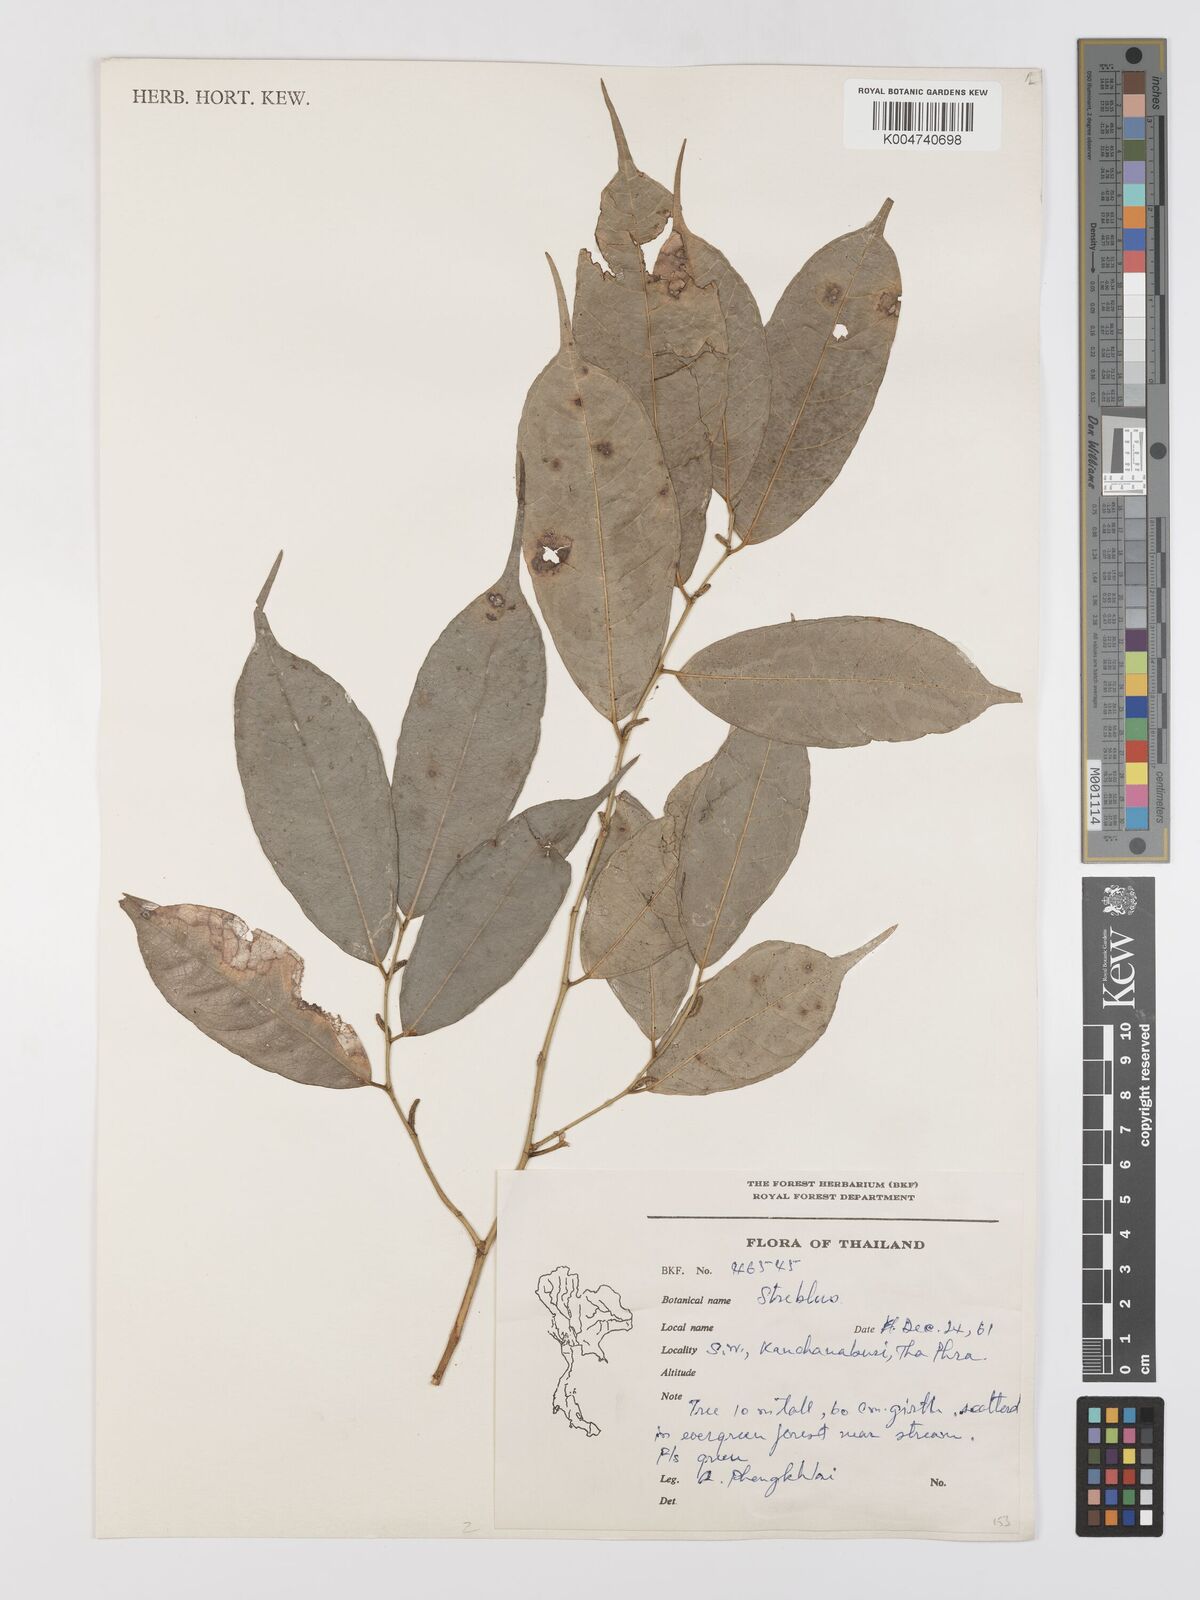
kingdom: Plantae
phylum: Tracheophyta
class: Magnoliopsida
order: Rosales
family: Moraceae
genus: Taxotrophis
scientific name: Taxotrophis macrophylla
